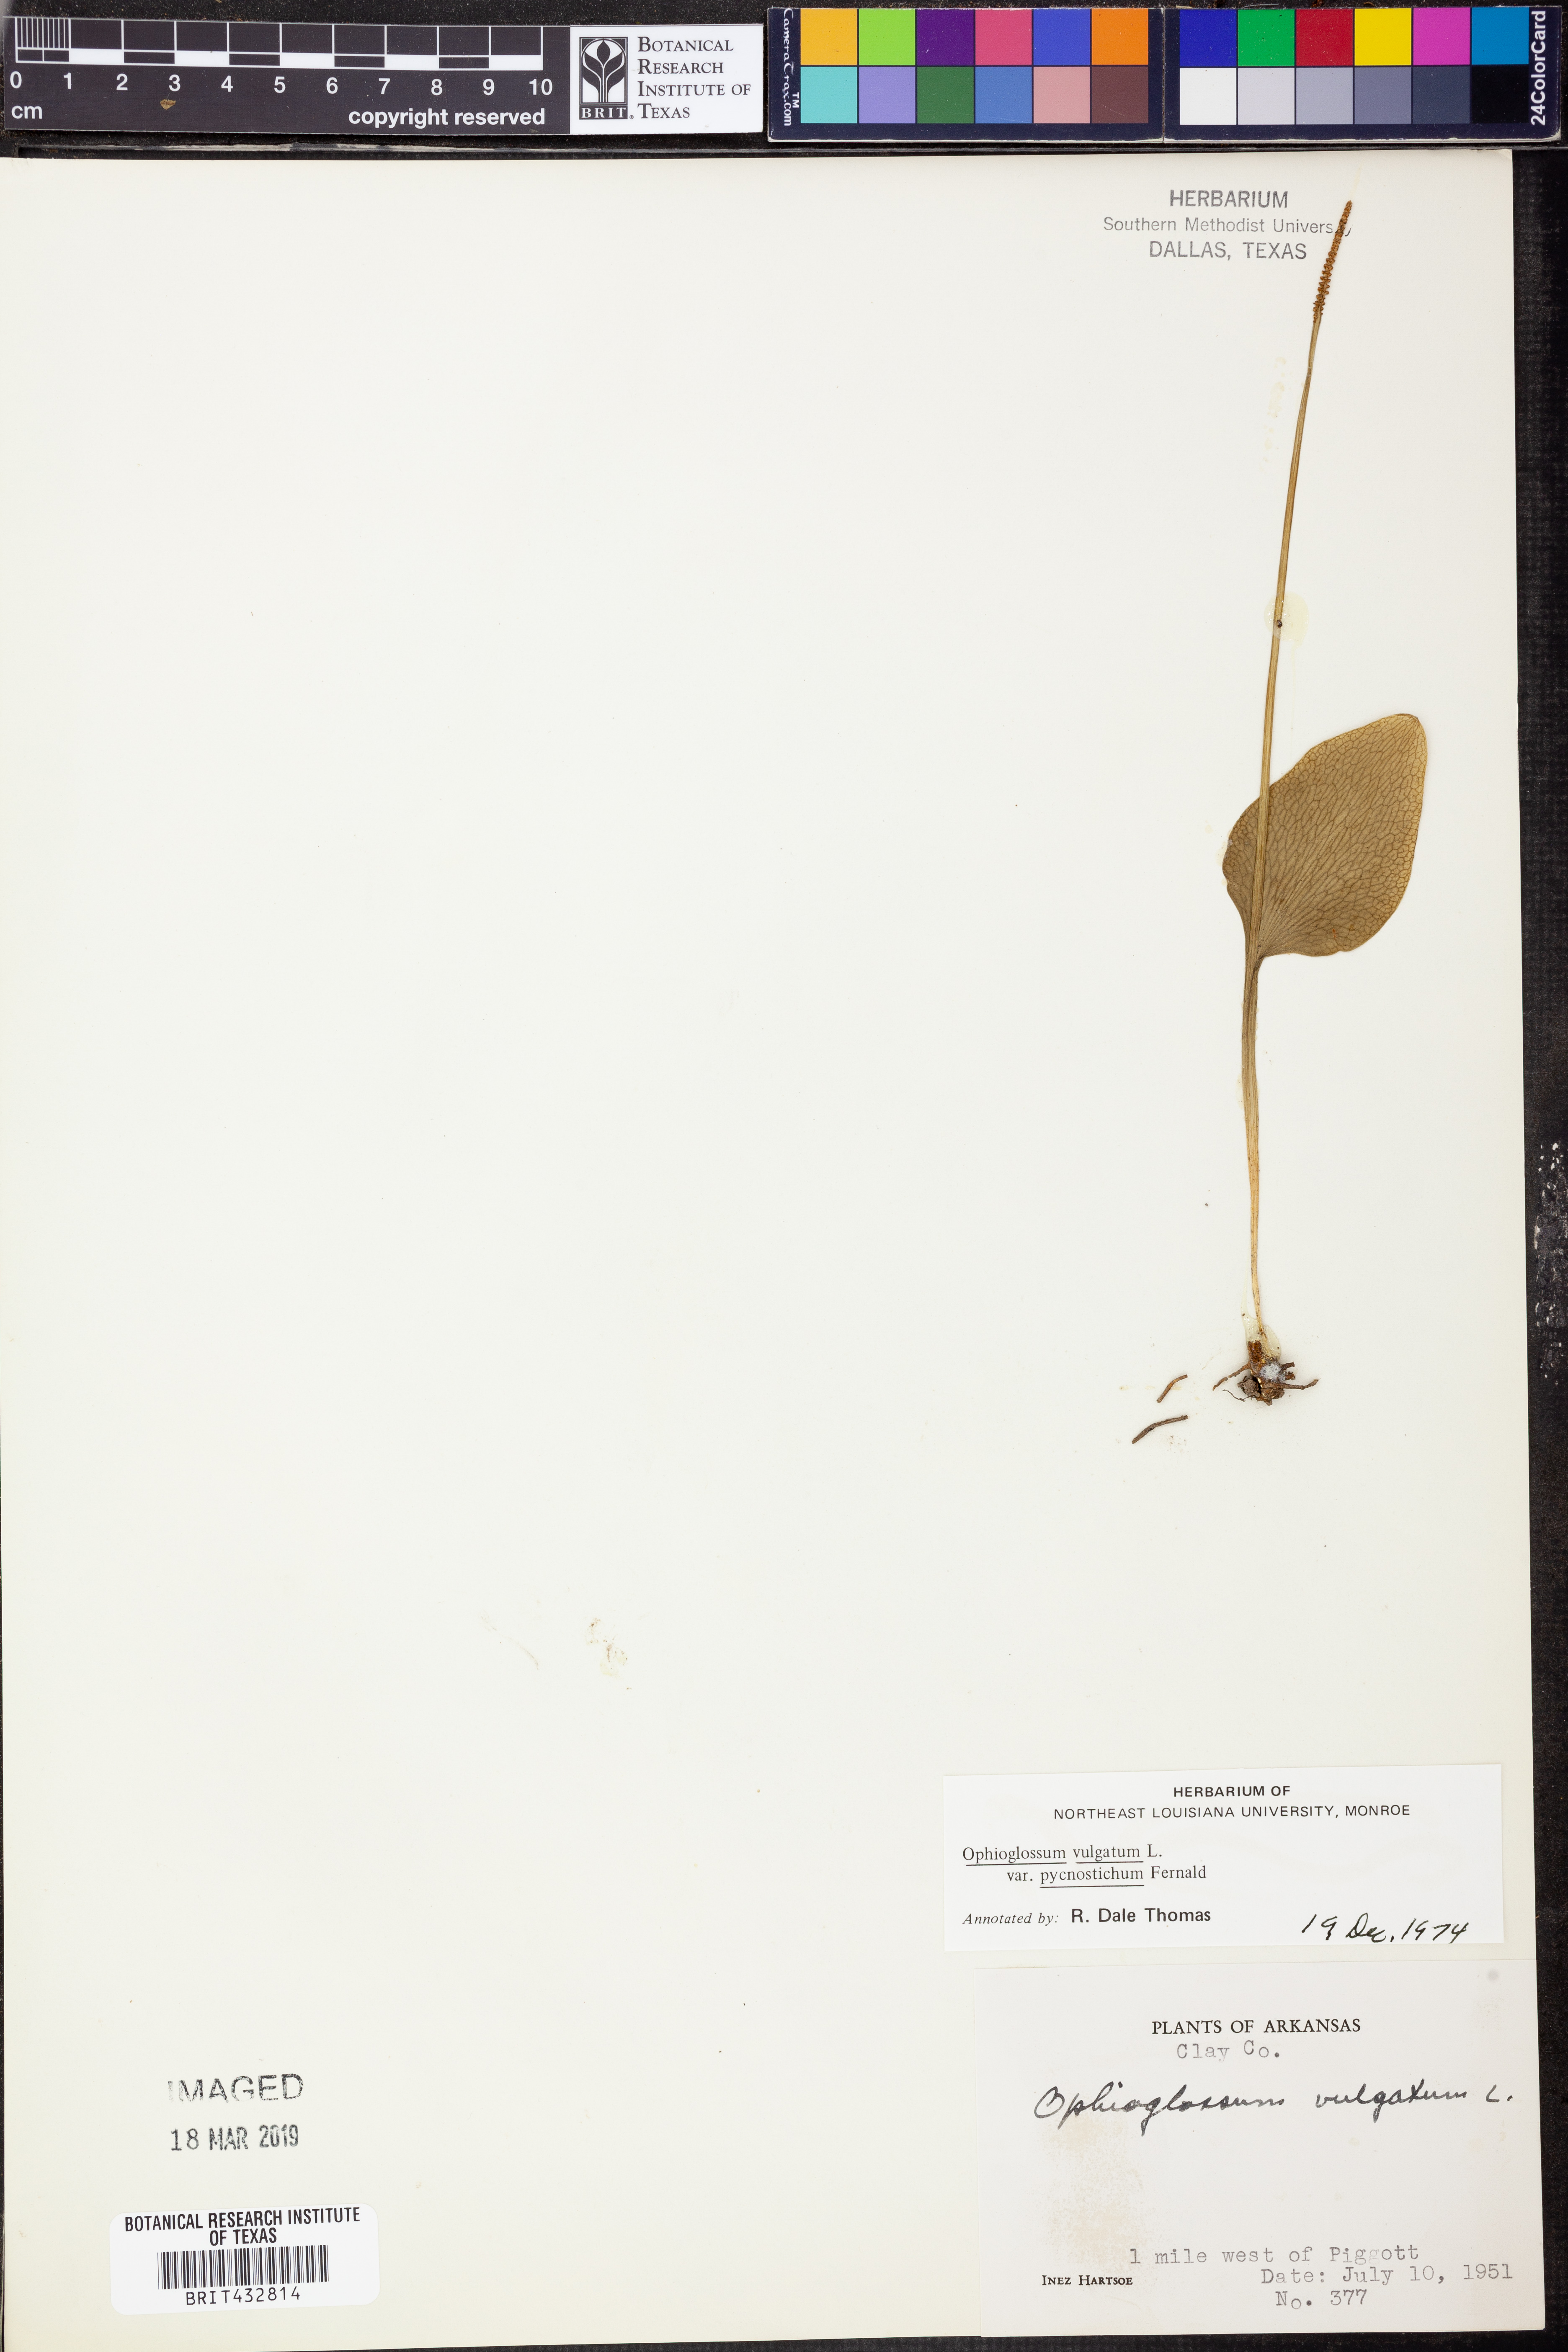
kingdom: Plantae
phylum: Tracheophyta
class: Polypodiopsida
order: Ophioglossales
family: Ophioglossaceae
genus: Ophioglossum
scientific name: Ophioglossum vulgatum
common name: Adder's-tongue
